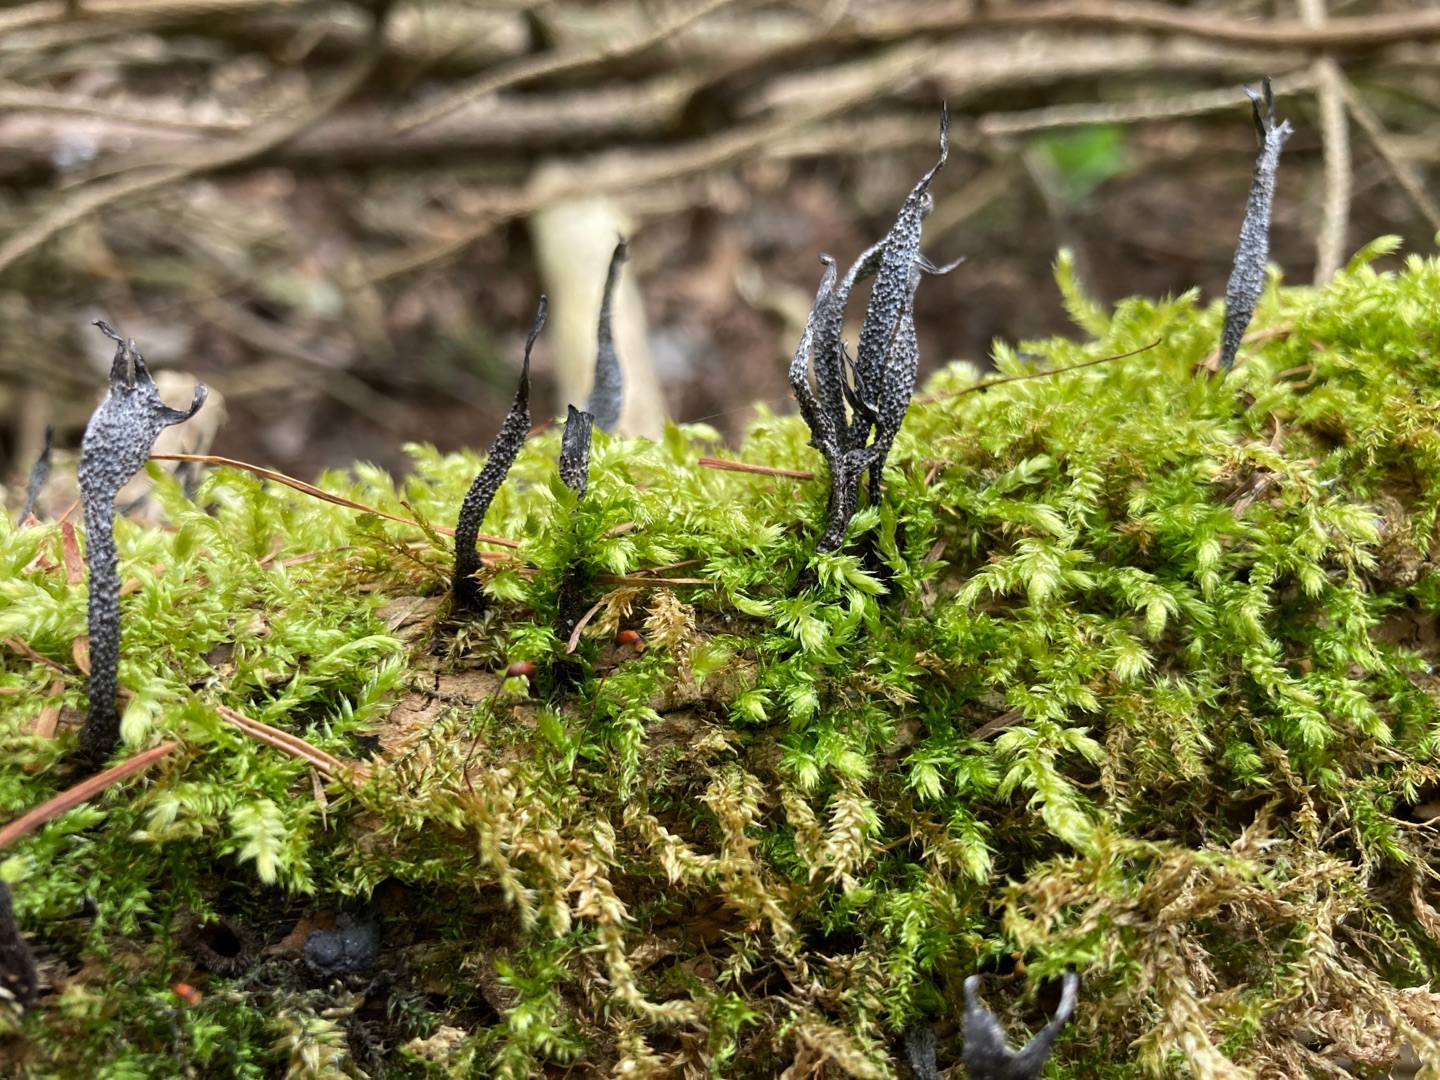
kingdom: Fungi
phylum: Ascomycota
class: Sordariomycetes
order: Xylariales
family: Xylariaceae
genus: Xylaria
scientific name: Xylaria hypoxylon
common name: Grenet stødsvamp
